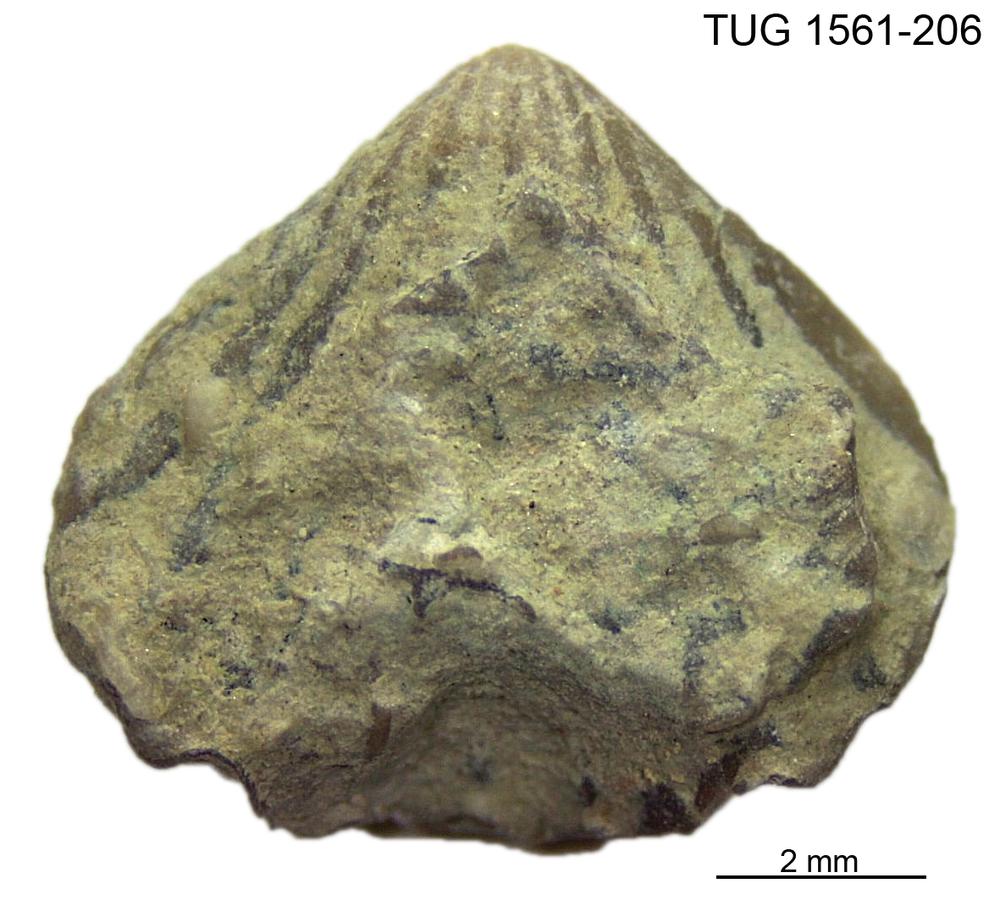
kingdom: Animalia
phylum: Brachiopoda
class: Rhynchonellata
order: Terebratulida
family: Megathyrididae
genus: Argyrotheca
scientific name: Argyrotheca cuneata
